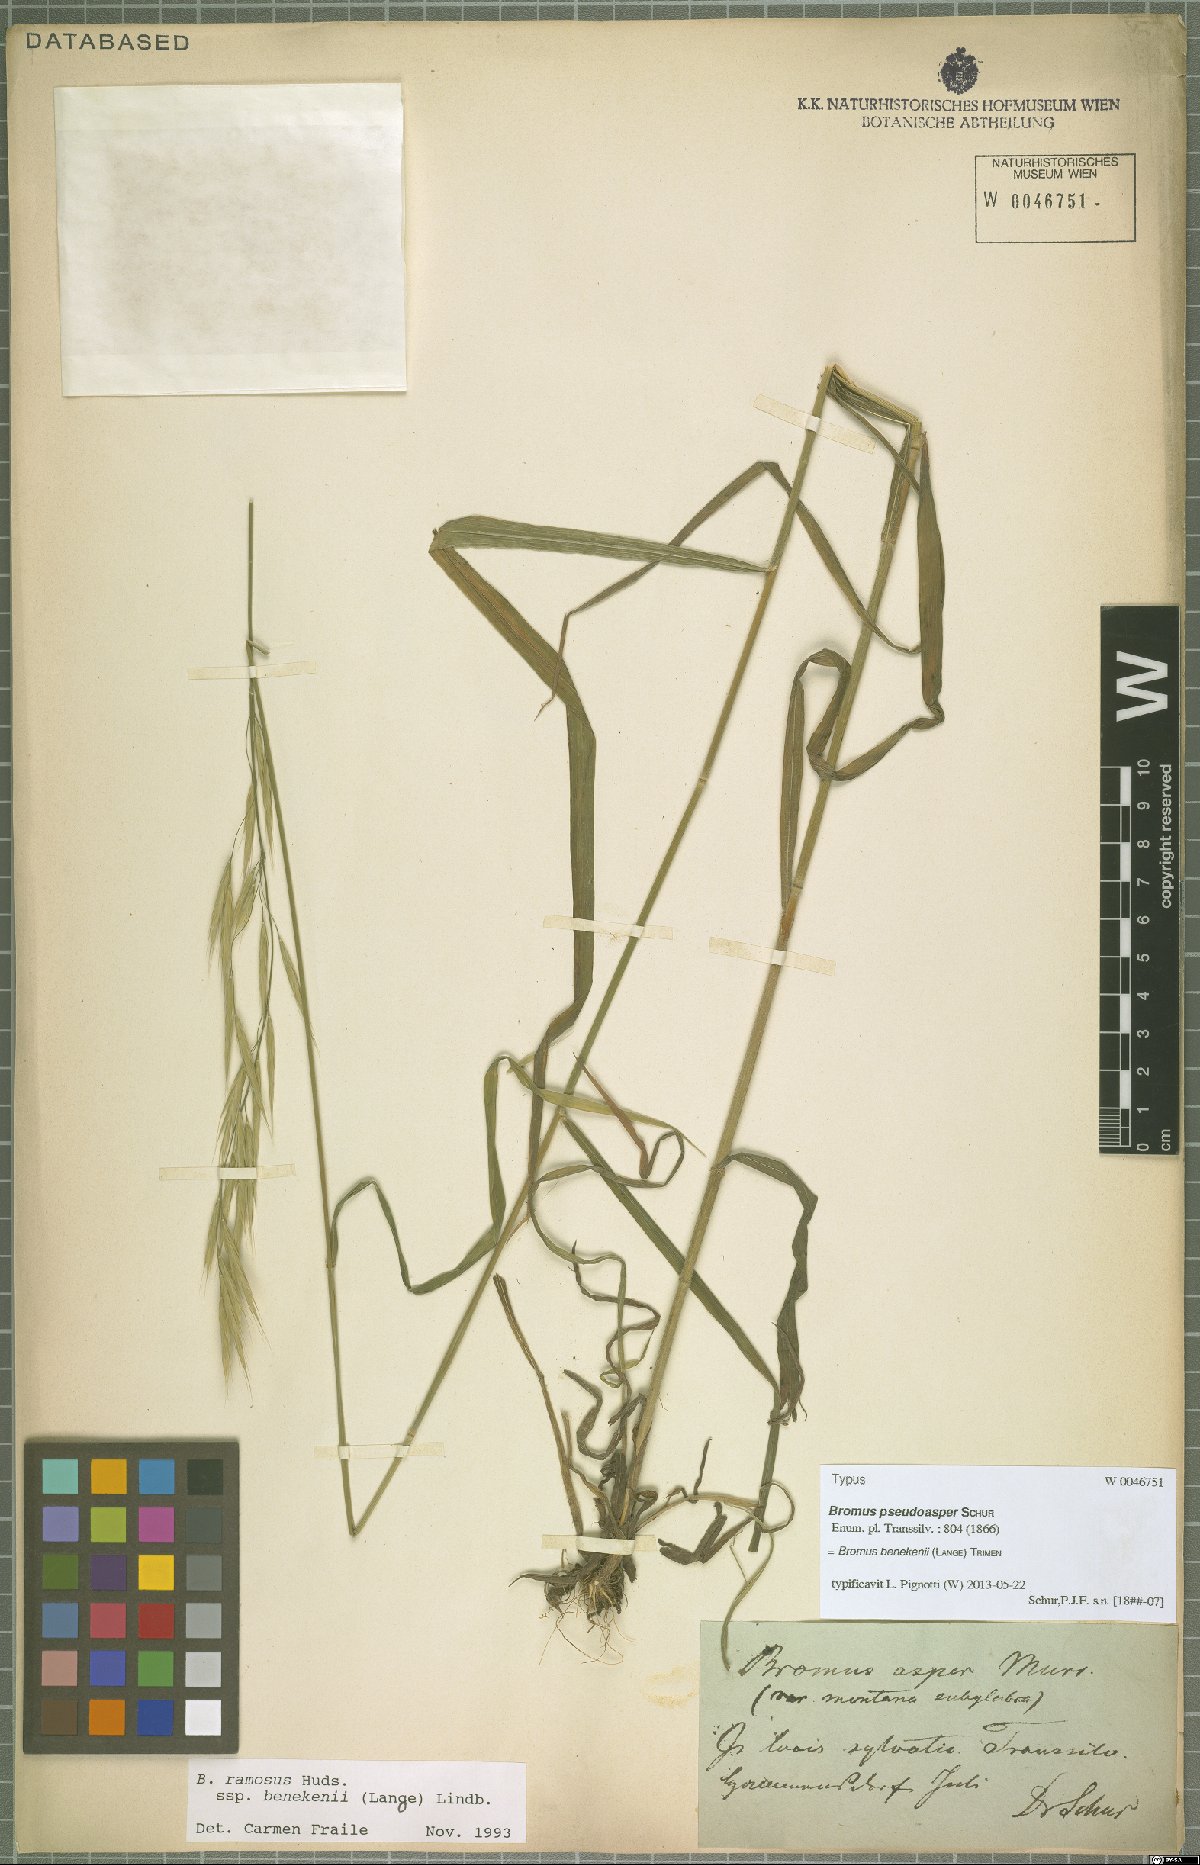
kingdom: Plantae
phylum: Tracheophyta
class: Liliopsida
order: Poales
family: Poaceae
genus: Bromus
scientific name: Bromus benekenii
